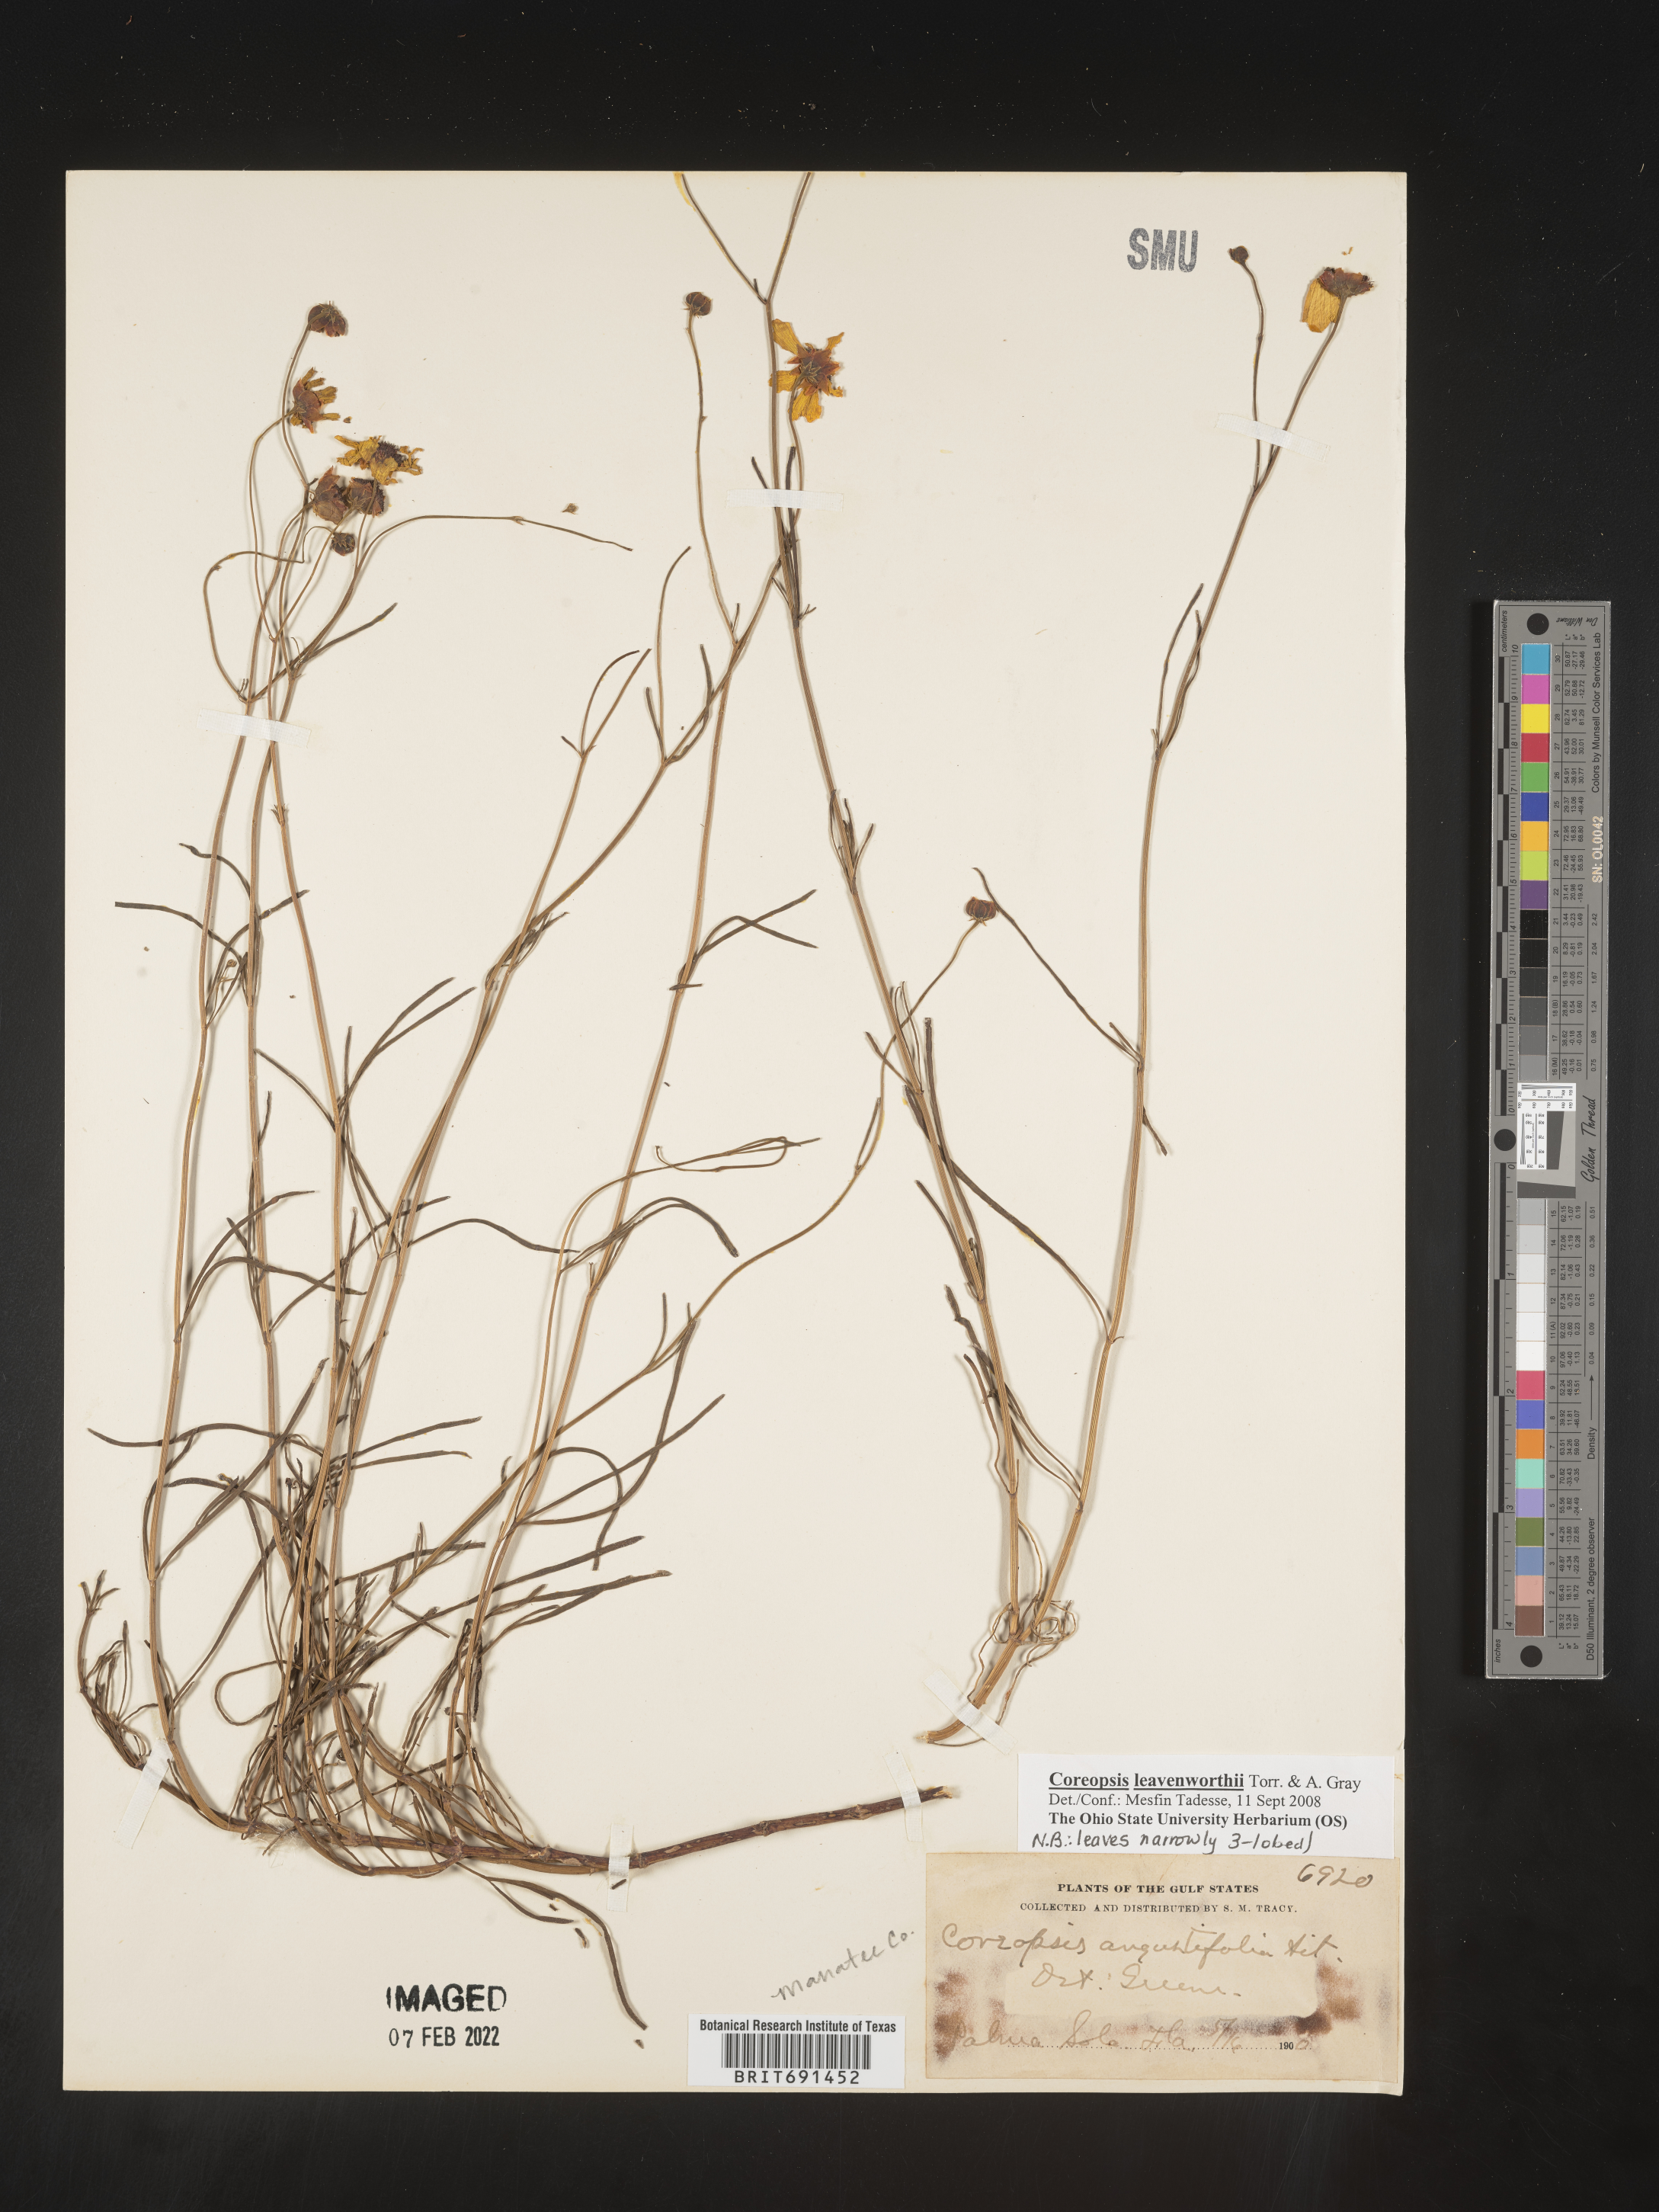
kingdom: Plantae
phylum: Tracheophyta
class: Magnoliopsida
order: Asterales
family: Asteraceae
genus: Coreopsis
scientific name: Coreopsis leavenworthii
